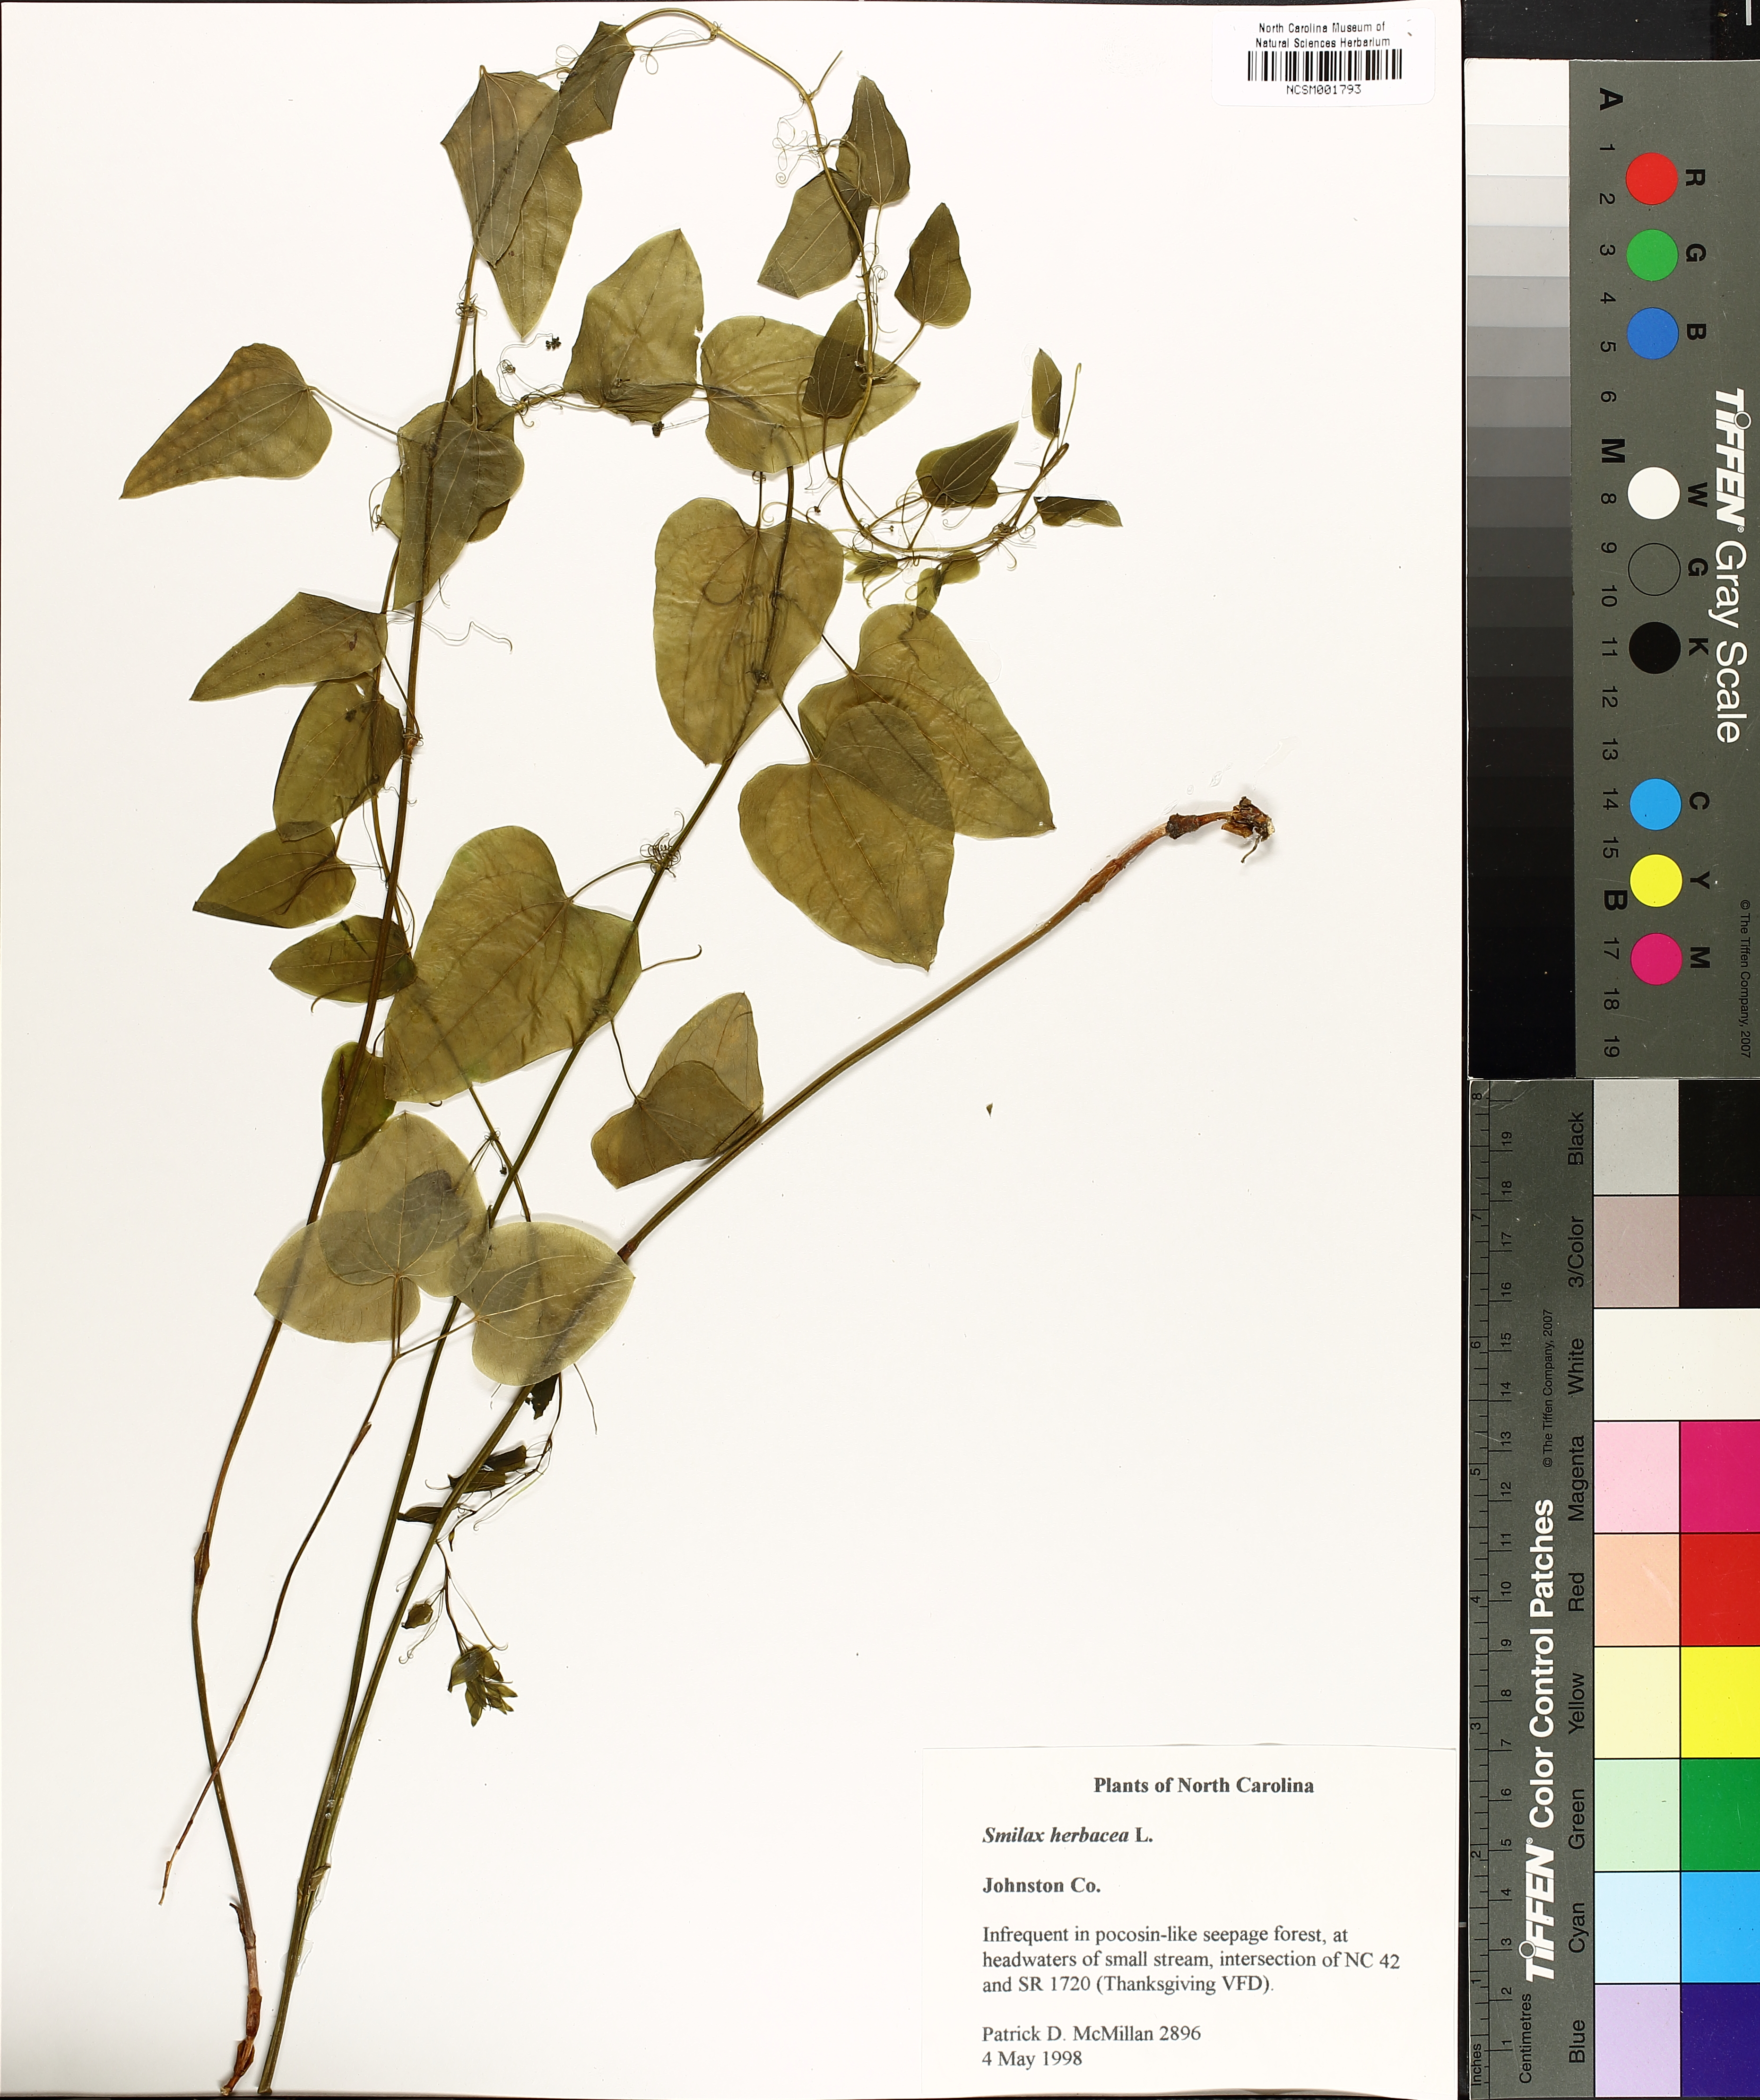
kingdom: Plantae
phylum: Tracheophyta
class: Liliopsida
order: Liliales
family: Smilacaceae
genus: Smilax
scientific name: Smilax herbacea
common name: Jacob's-ladder
